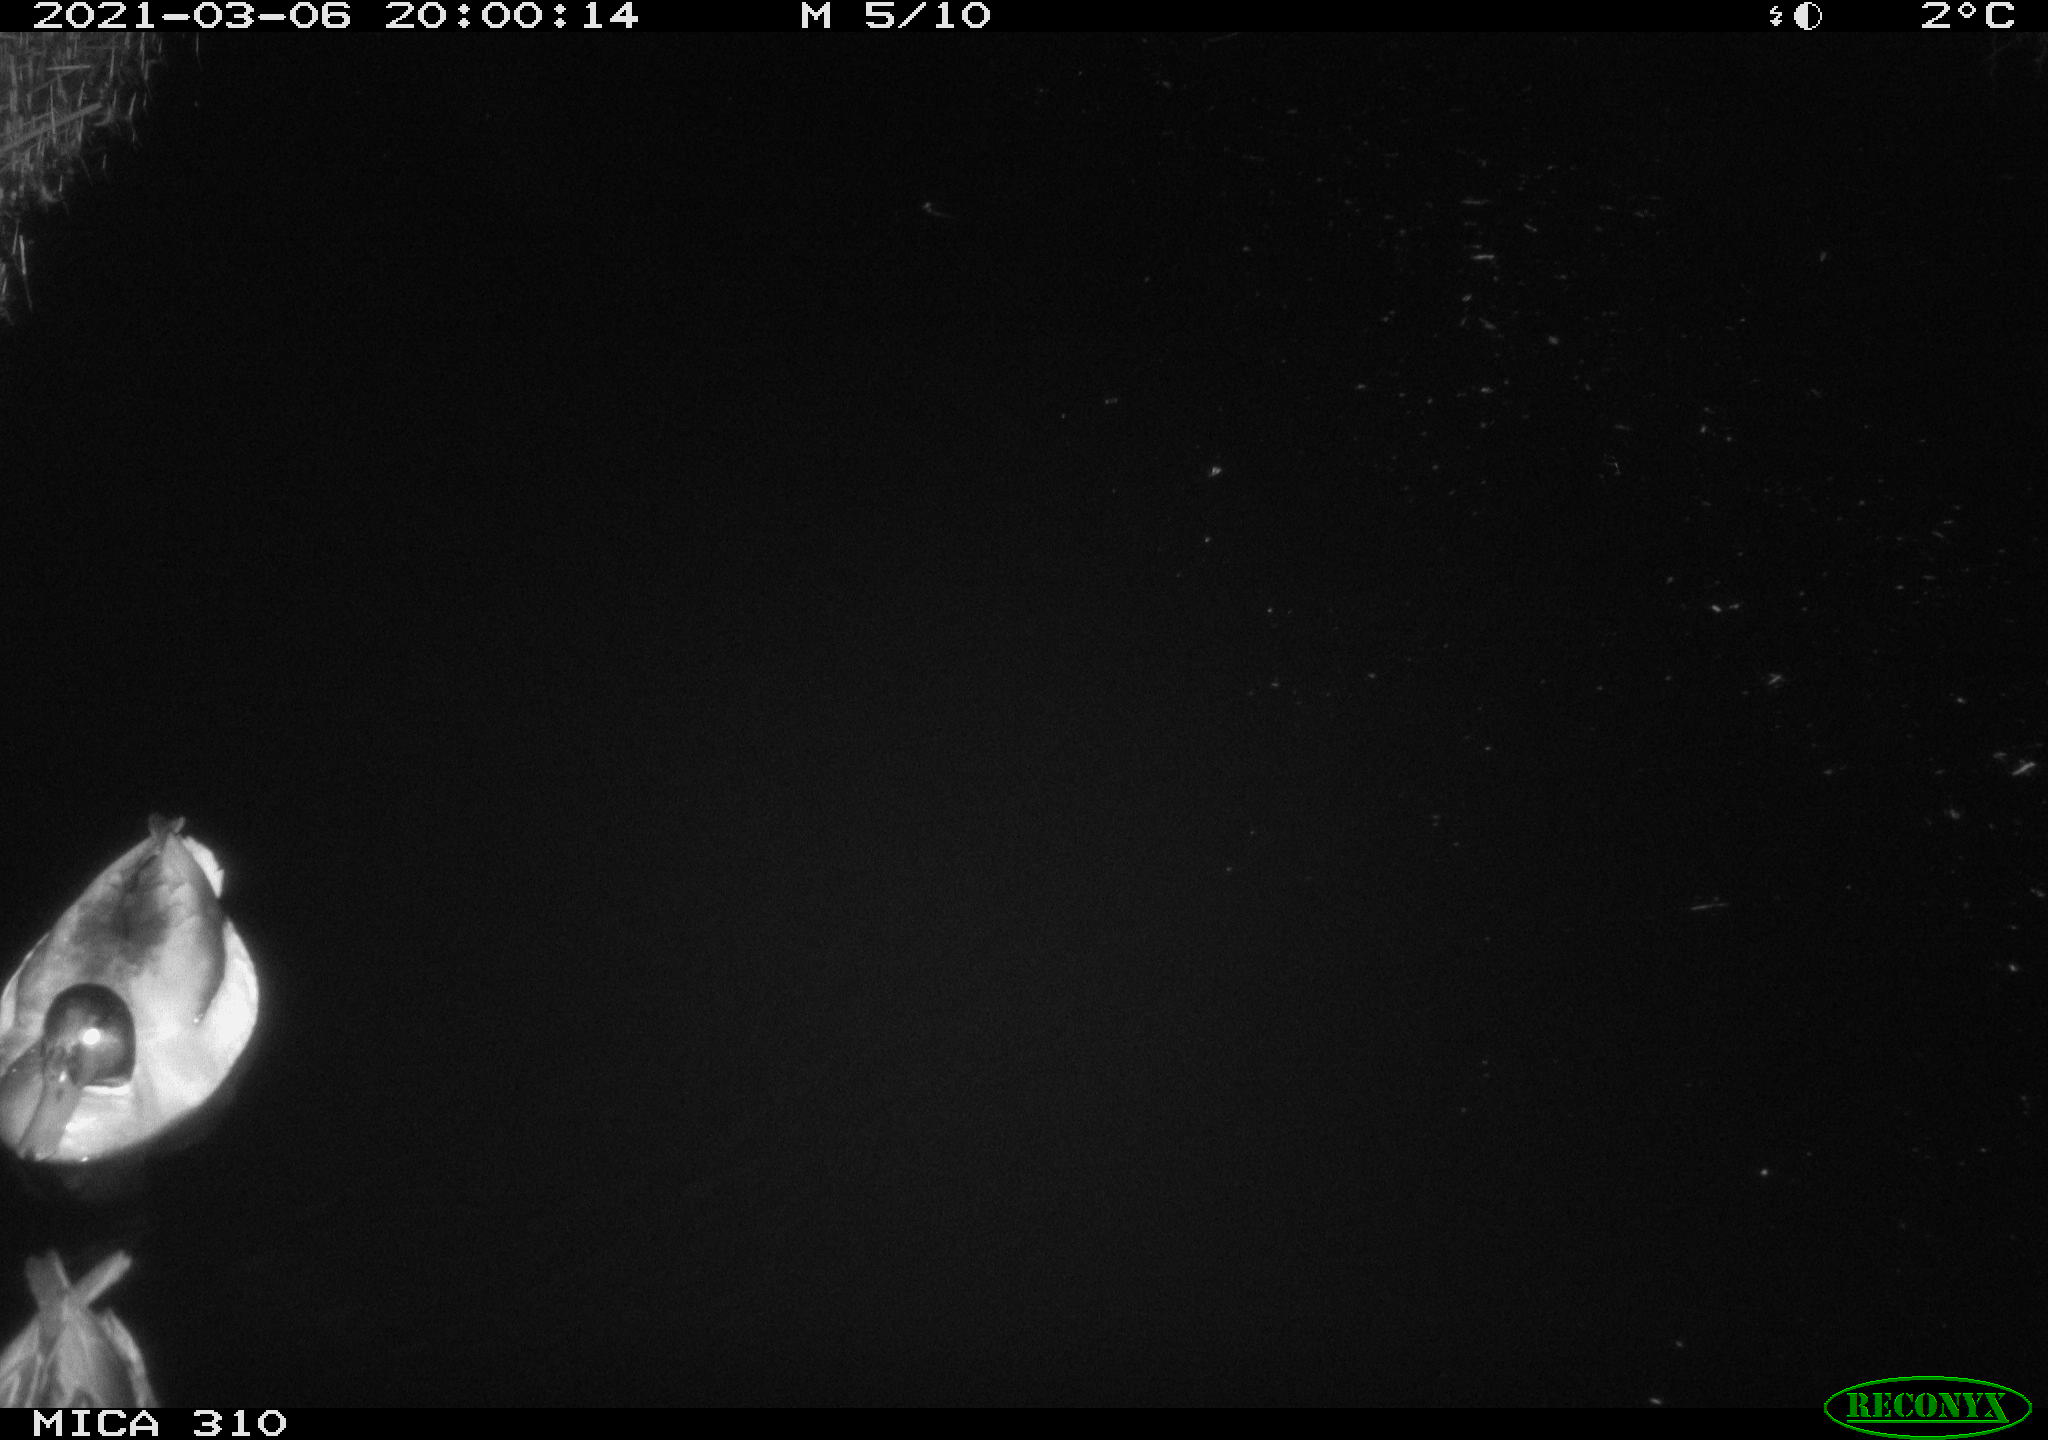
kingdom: Animalia
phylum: Chordata
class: Aves
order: Anseriformes
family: Anatidae
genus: Anas
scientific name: Anas platyrhynchos
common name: Mallard
